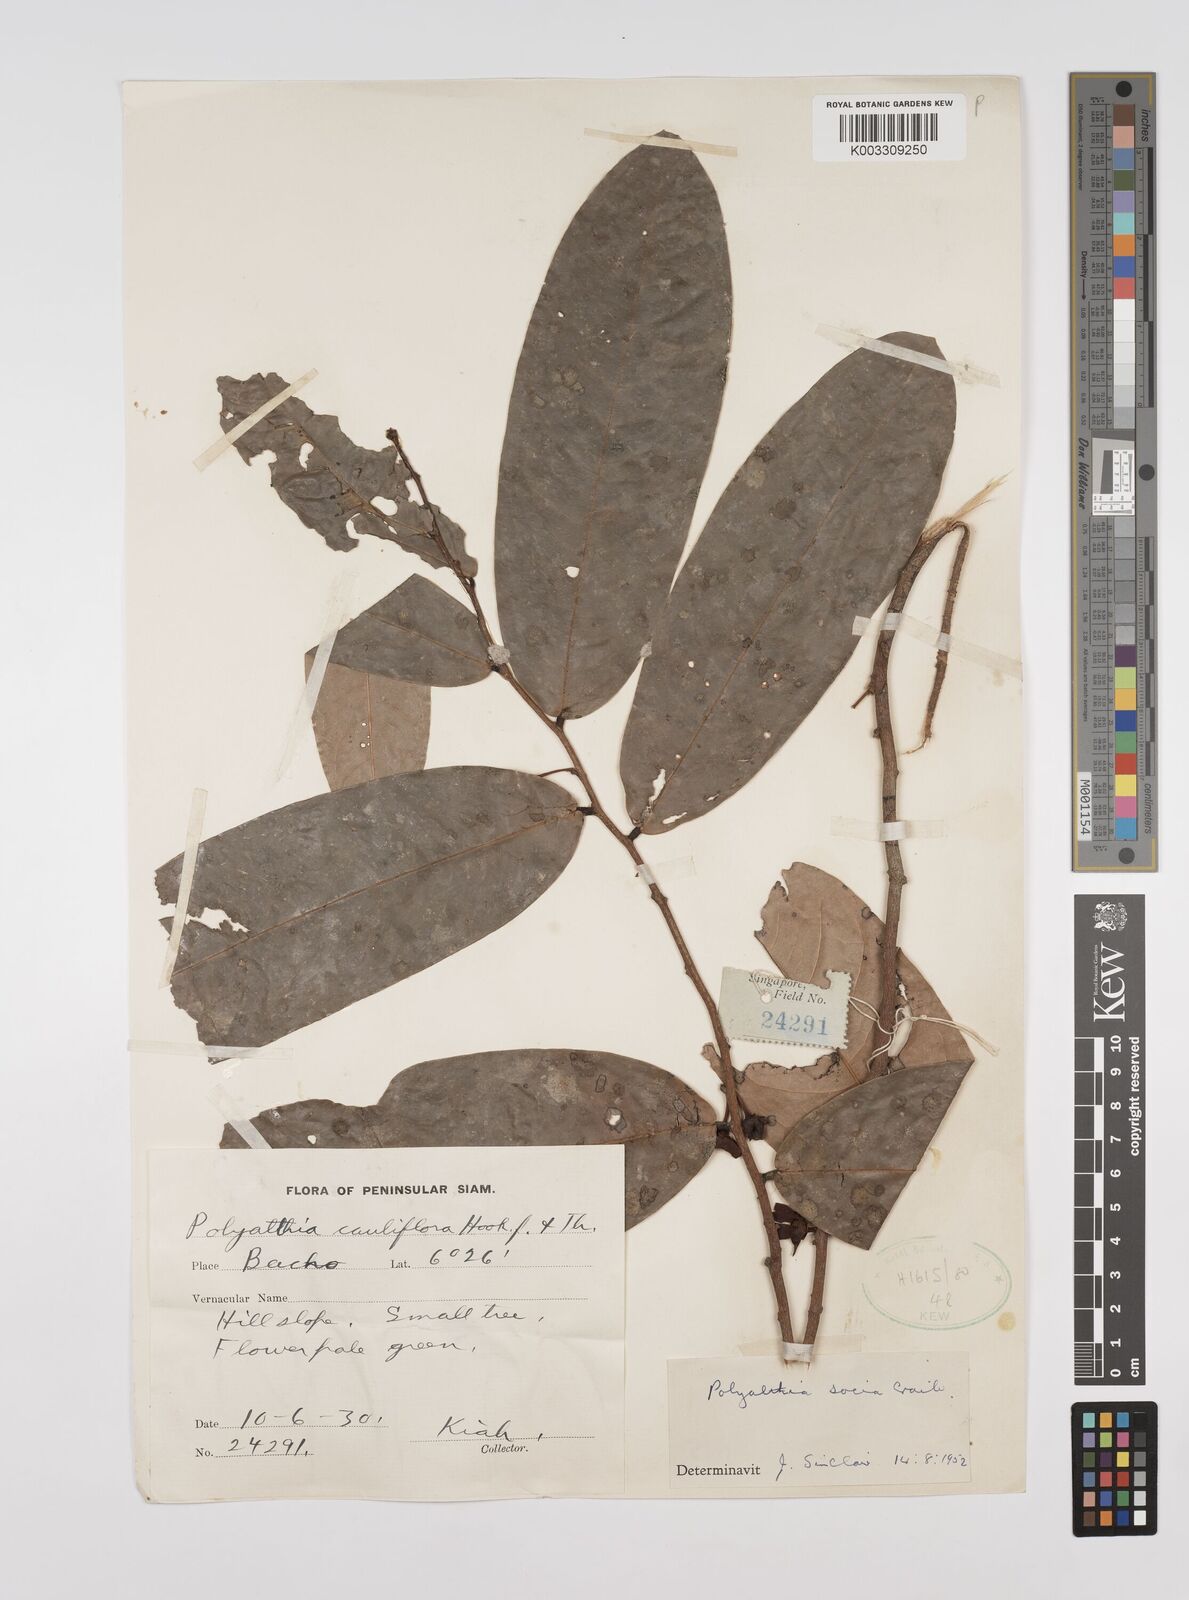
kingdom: Plantae
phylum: Tracheophyta
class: Magnoliopsida
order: Magnoliales
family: Annonaceae
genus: Polyalthia
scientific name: Polyalthia socia
